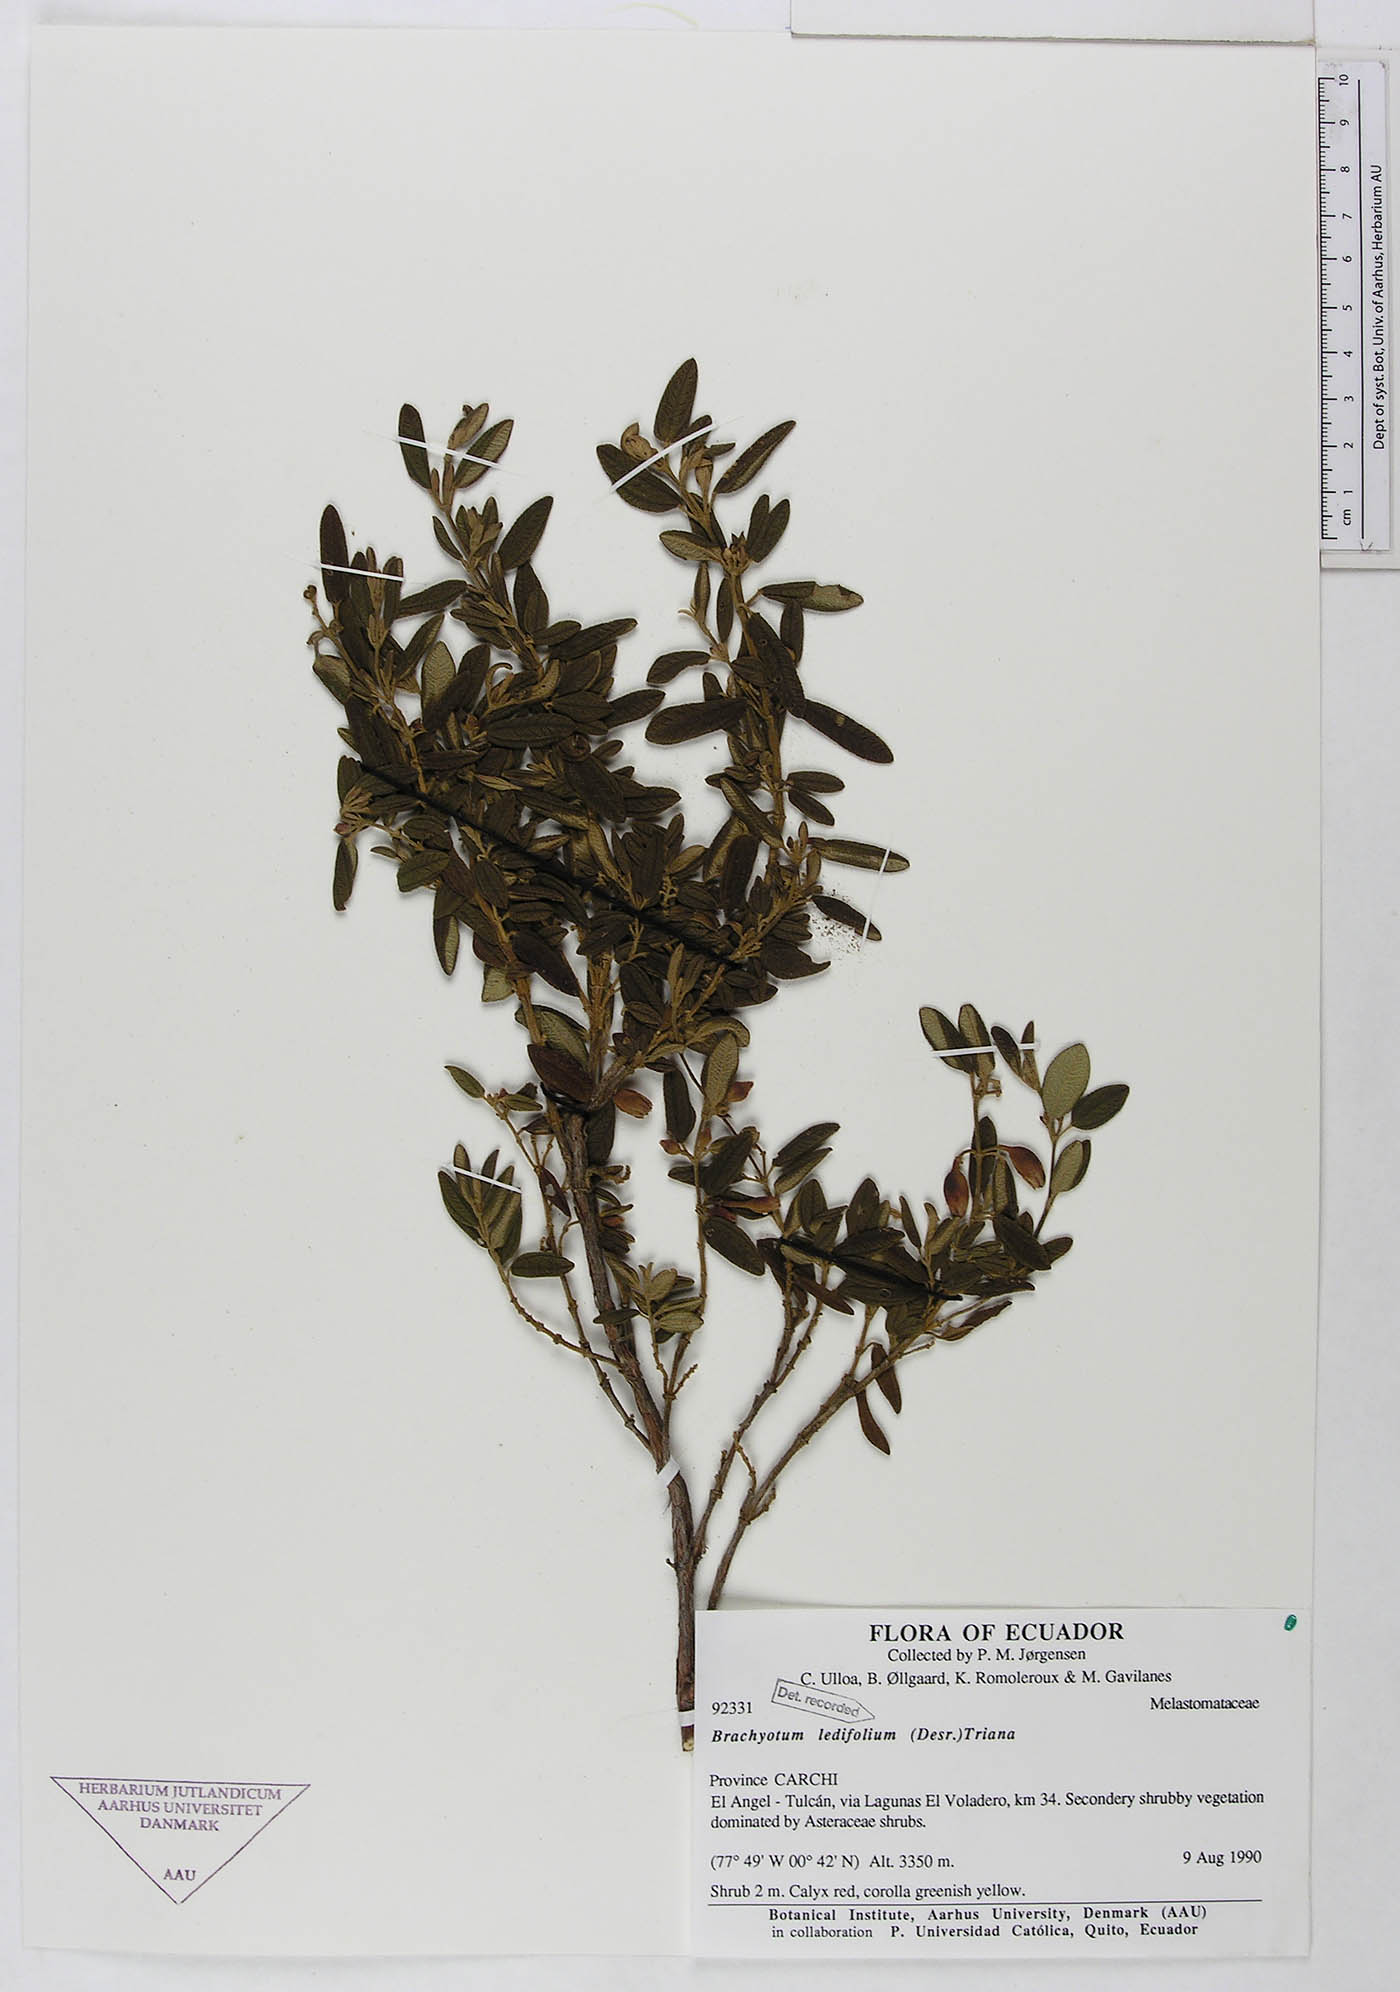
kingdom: Plantae
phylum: Tracheophyta
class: Magnoliopsida
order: Myrtales
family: Melastomataceae
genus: Brachyotum
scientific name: Brachyotum ledifolium
